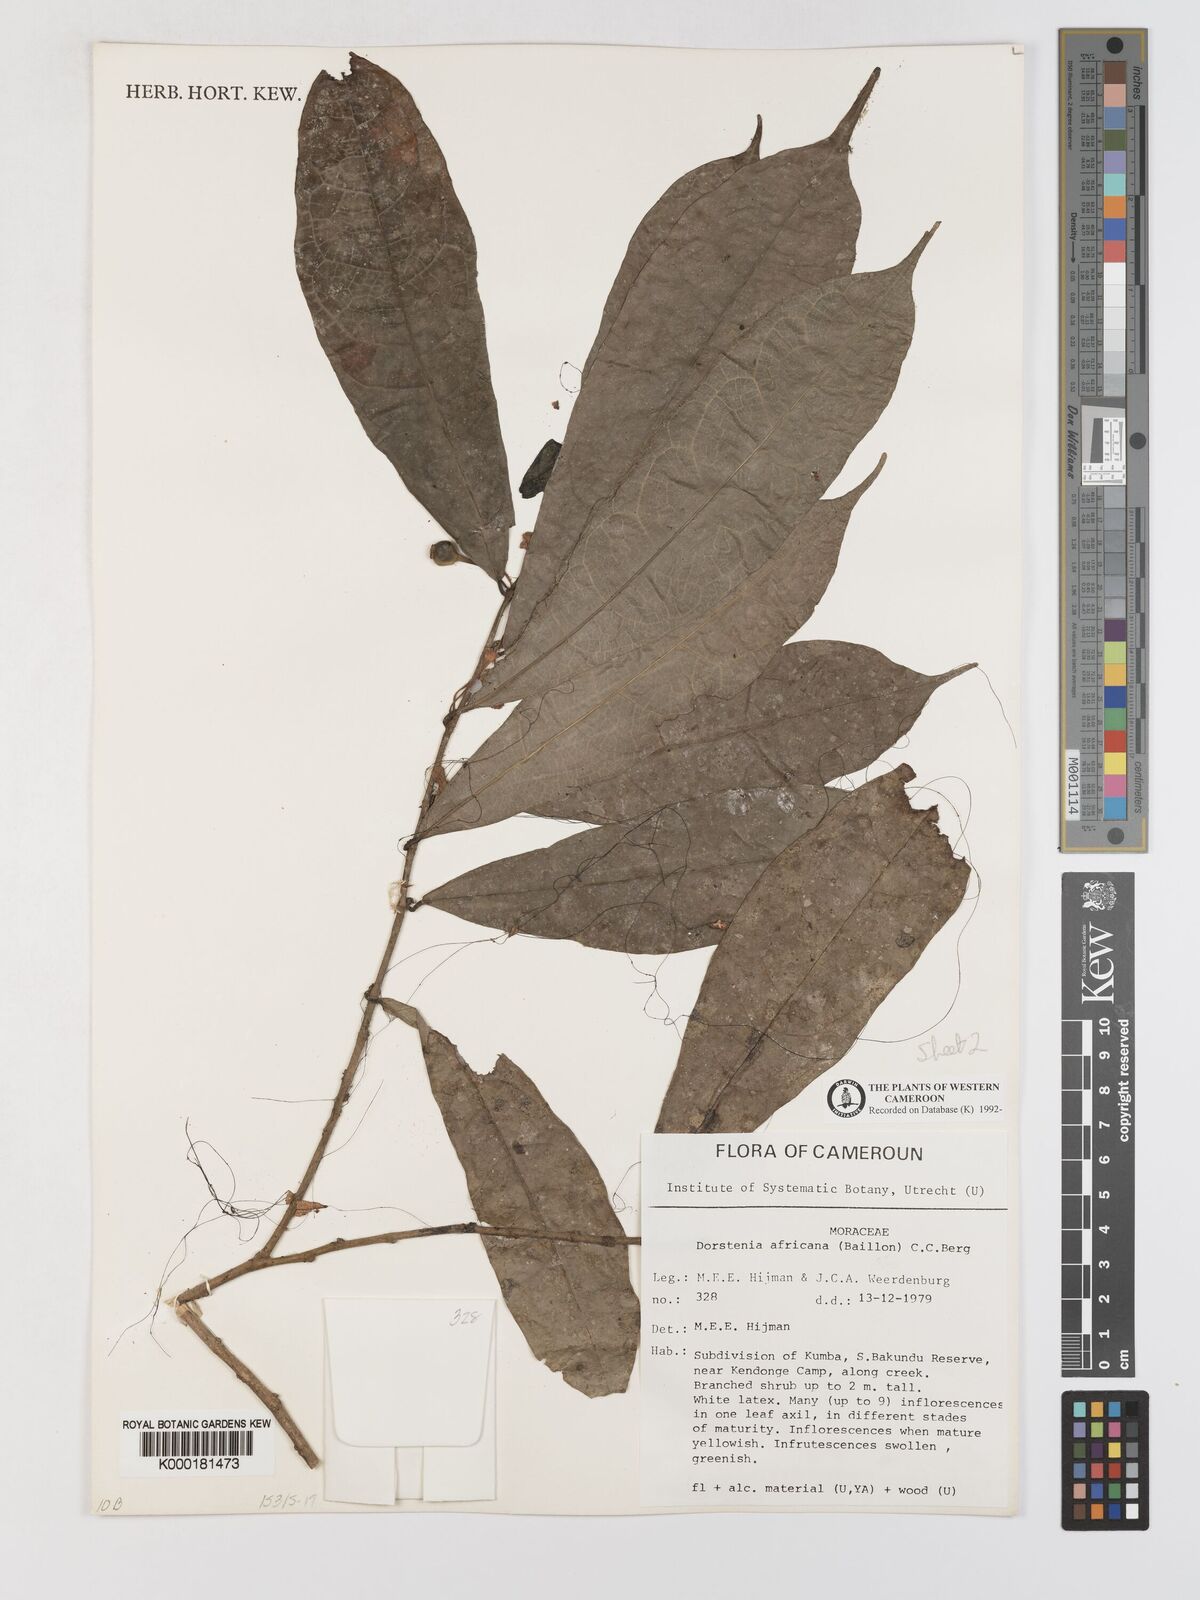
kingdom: Plantae
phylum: Tracheophyta
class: Magnoliopsida
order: Rosales
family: Moraceae
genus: Dorstenia
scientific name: Dorstenia africana
